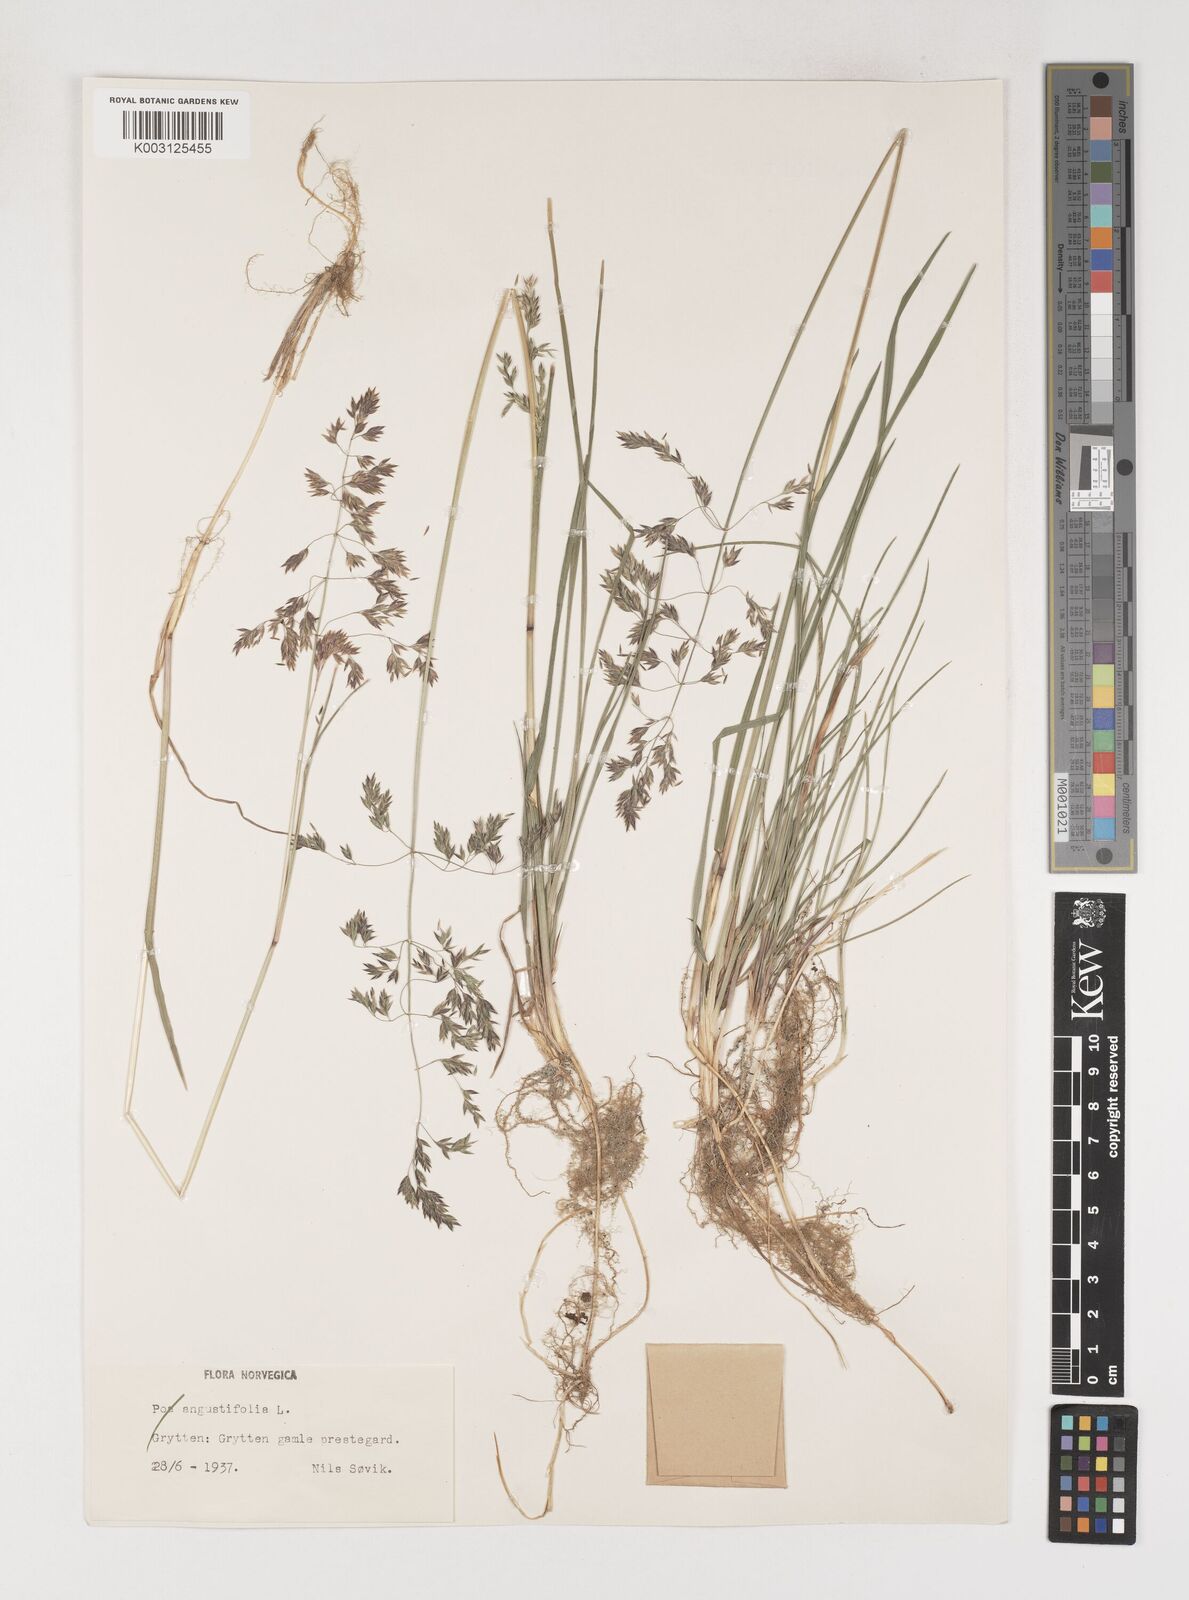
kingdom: Plantae
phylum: Tracheophyta
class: Liliopsida
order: Poales
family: Poaceae
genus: Poa
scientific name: Poa angustifolia
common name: Narrow-leaved meadow-grass
